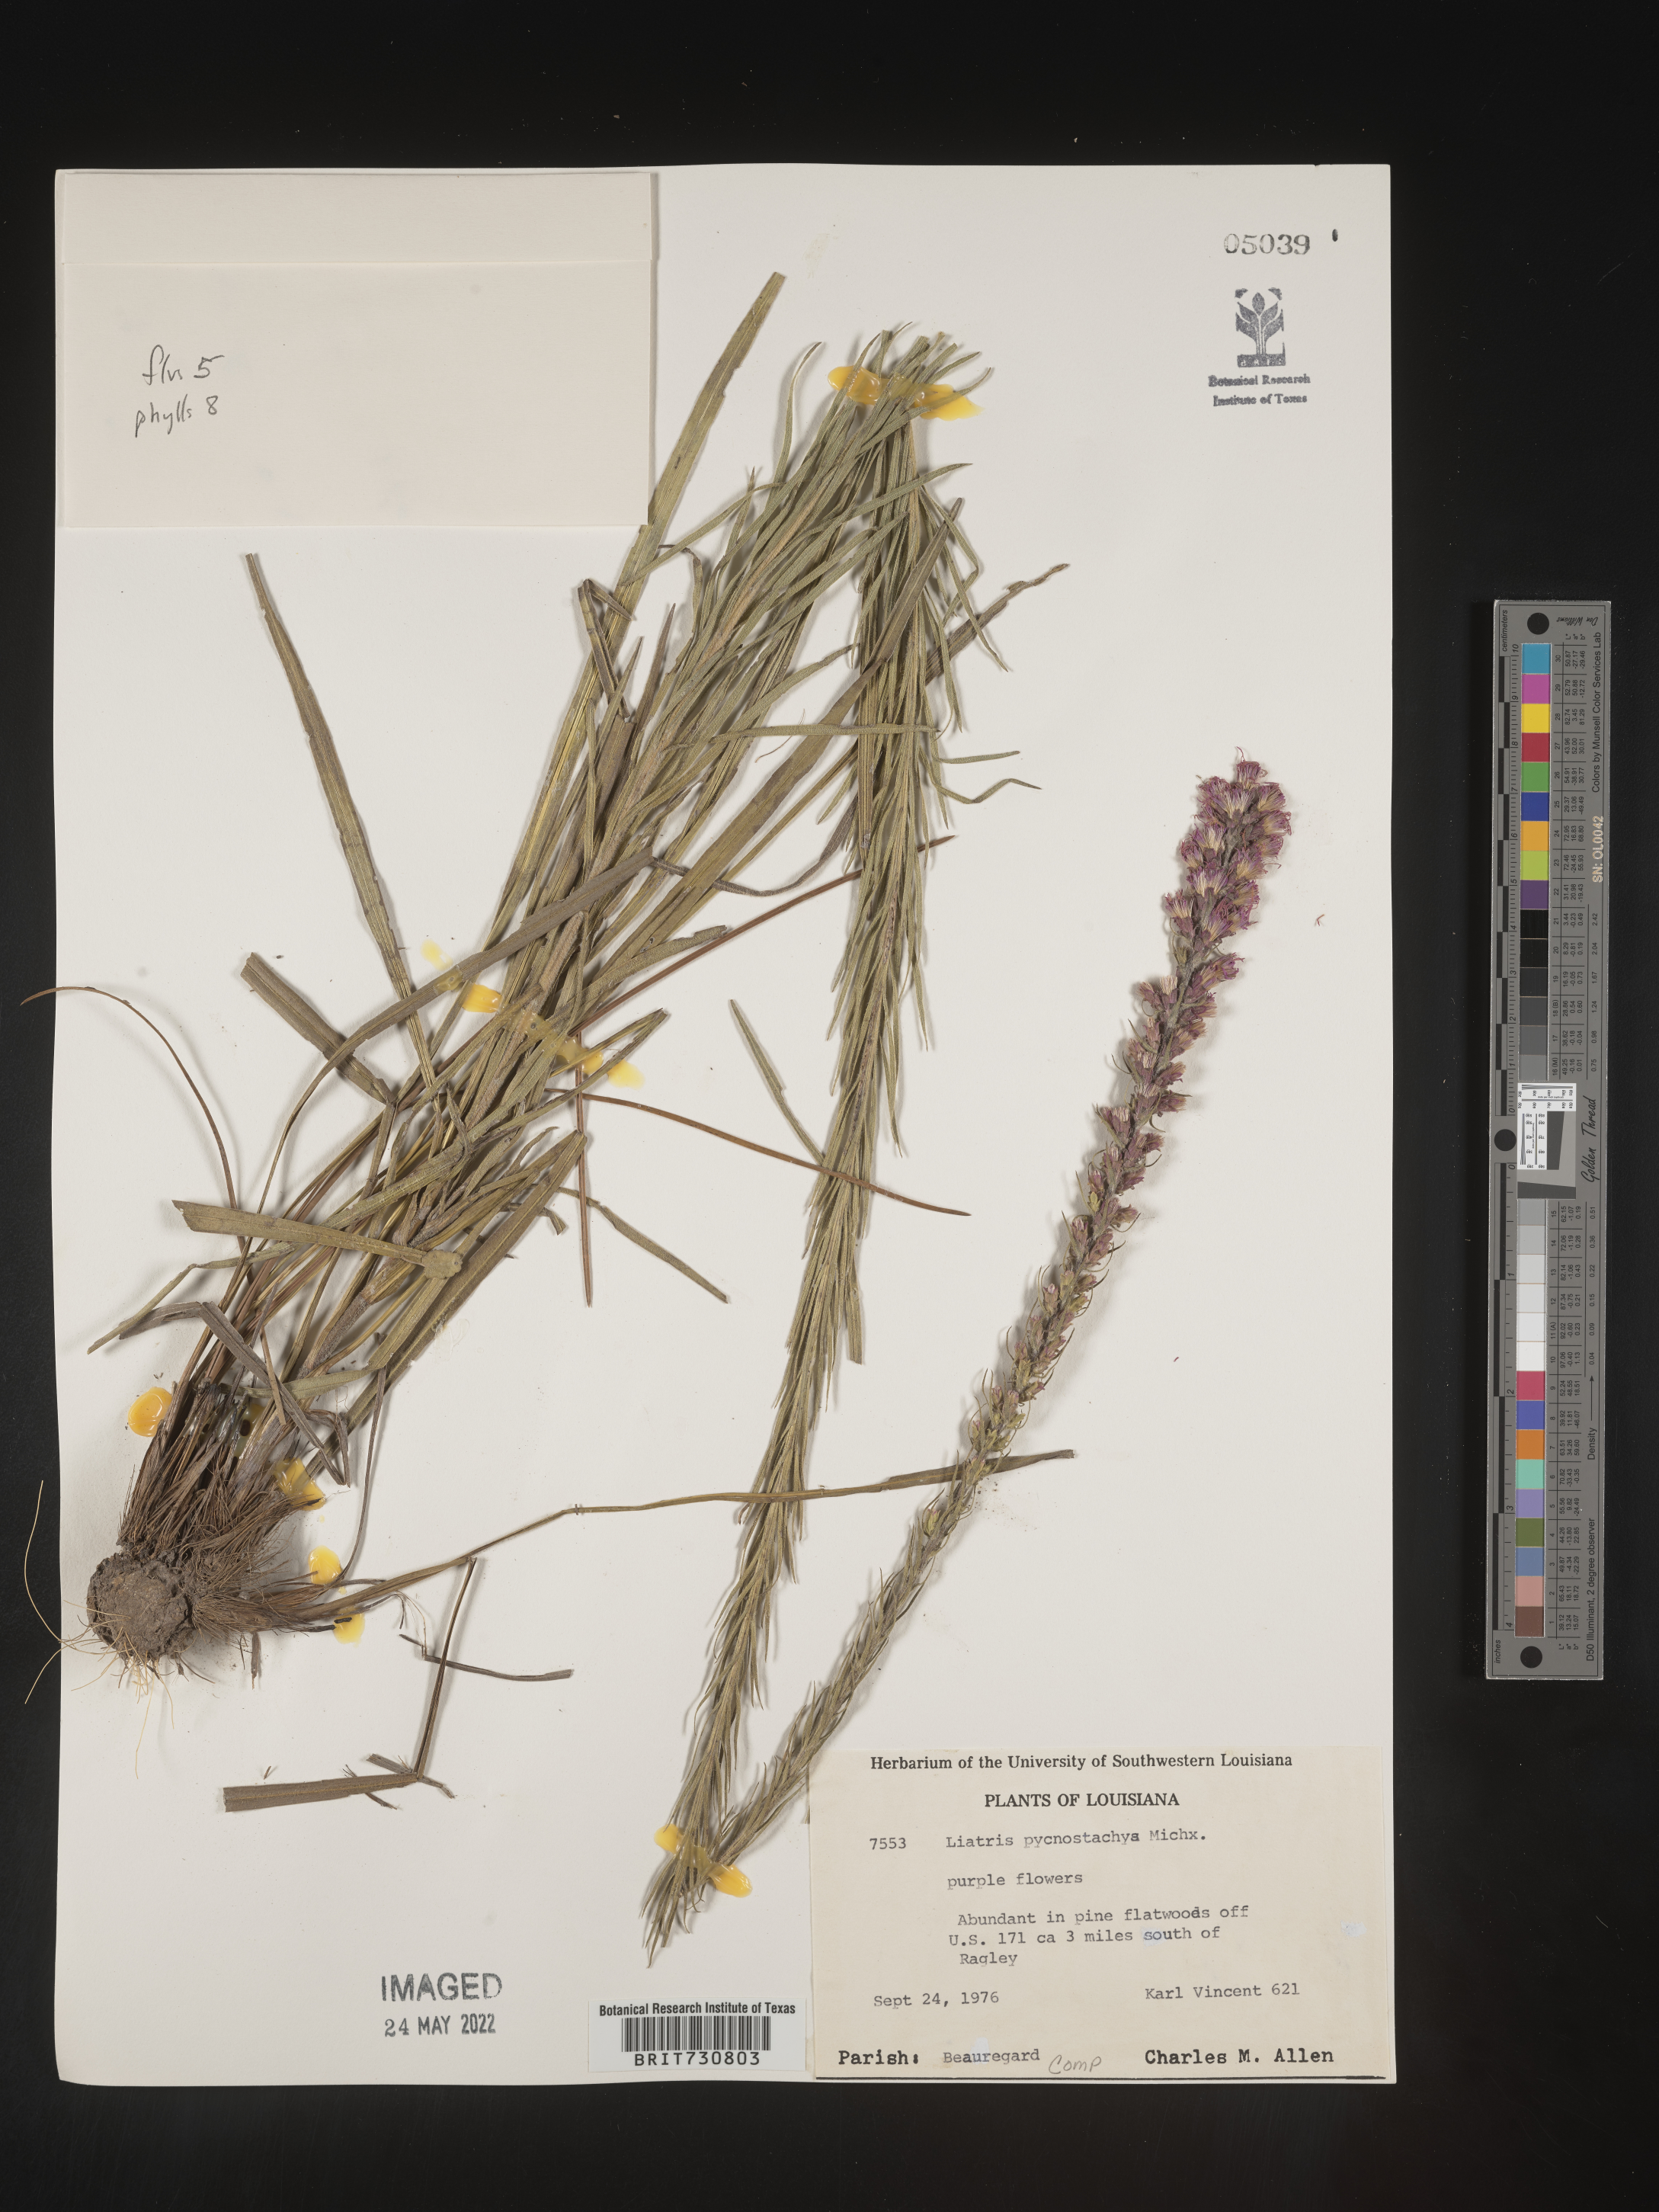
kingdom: Plantae
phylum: Tracheophyta
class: Magnoliopsida
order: Asterales
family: Asteraceae
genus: Liatris
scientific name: Liatris pycnostachya
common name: Cattail gayfeather
